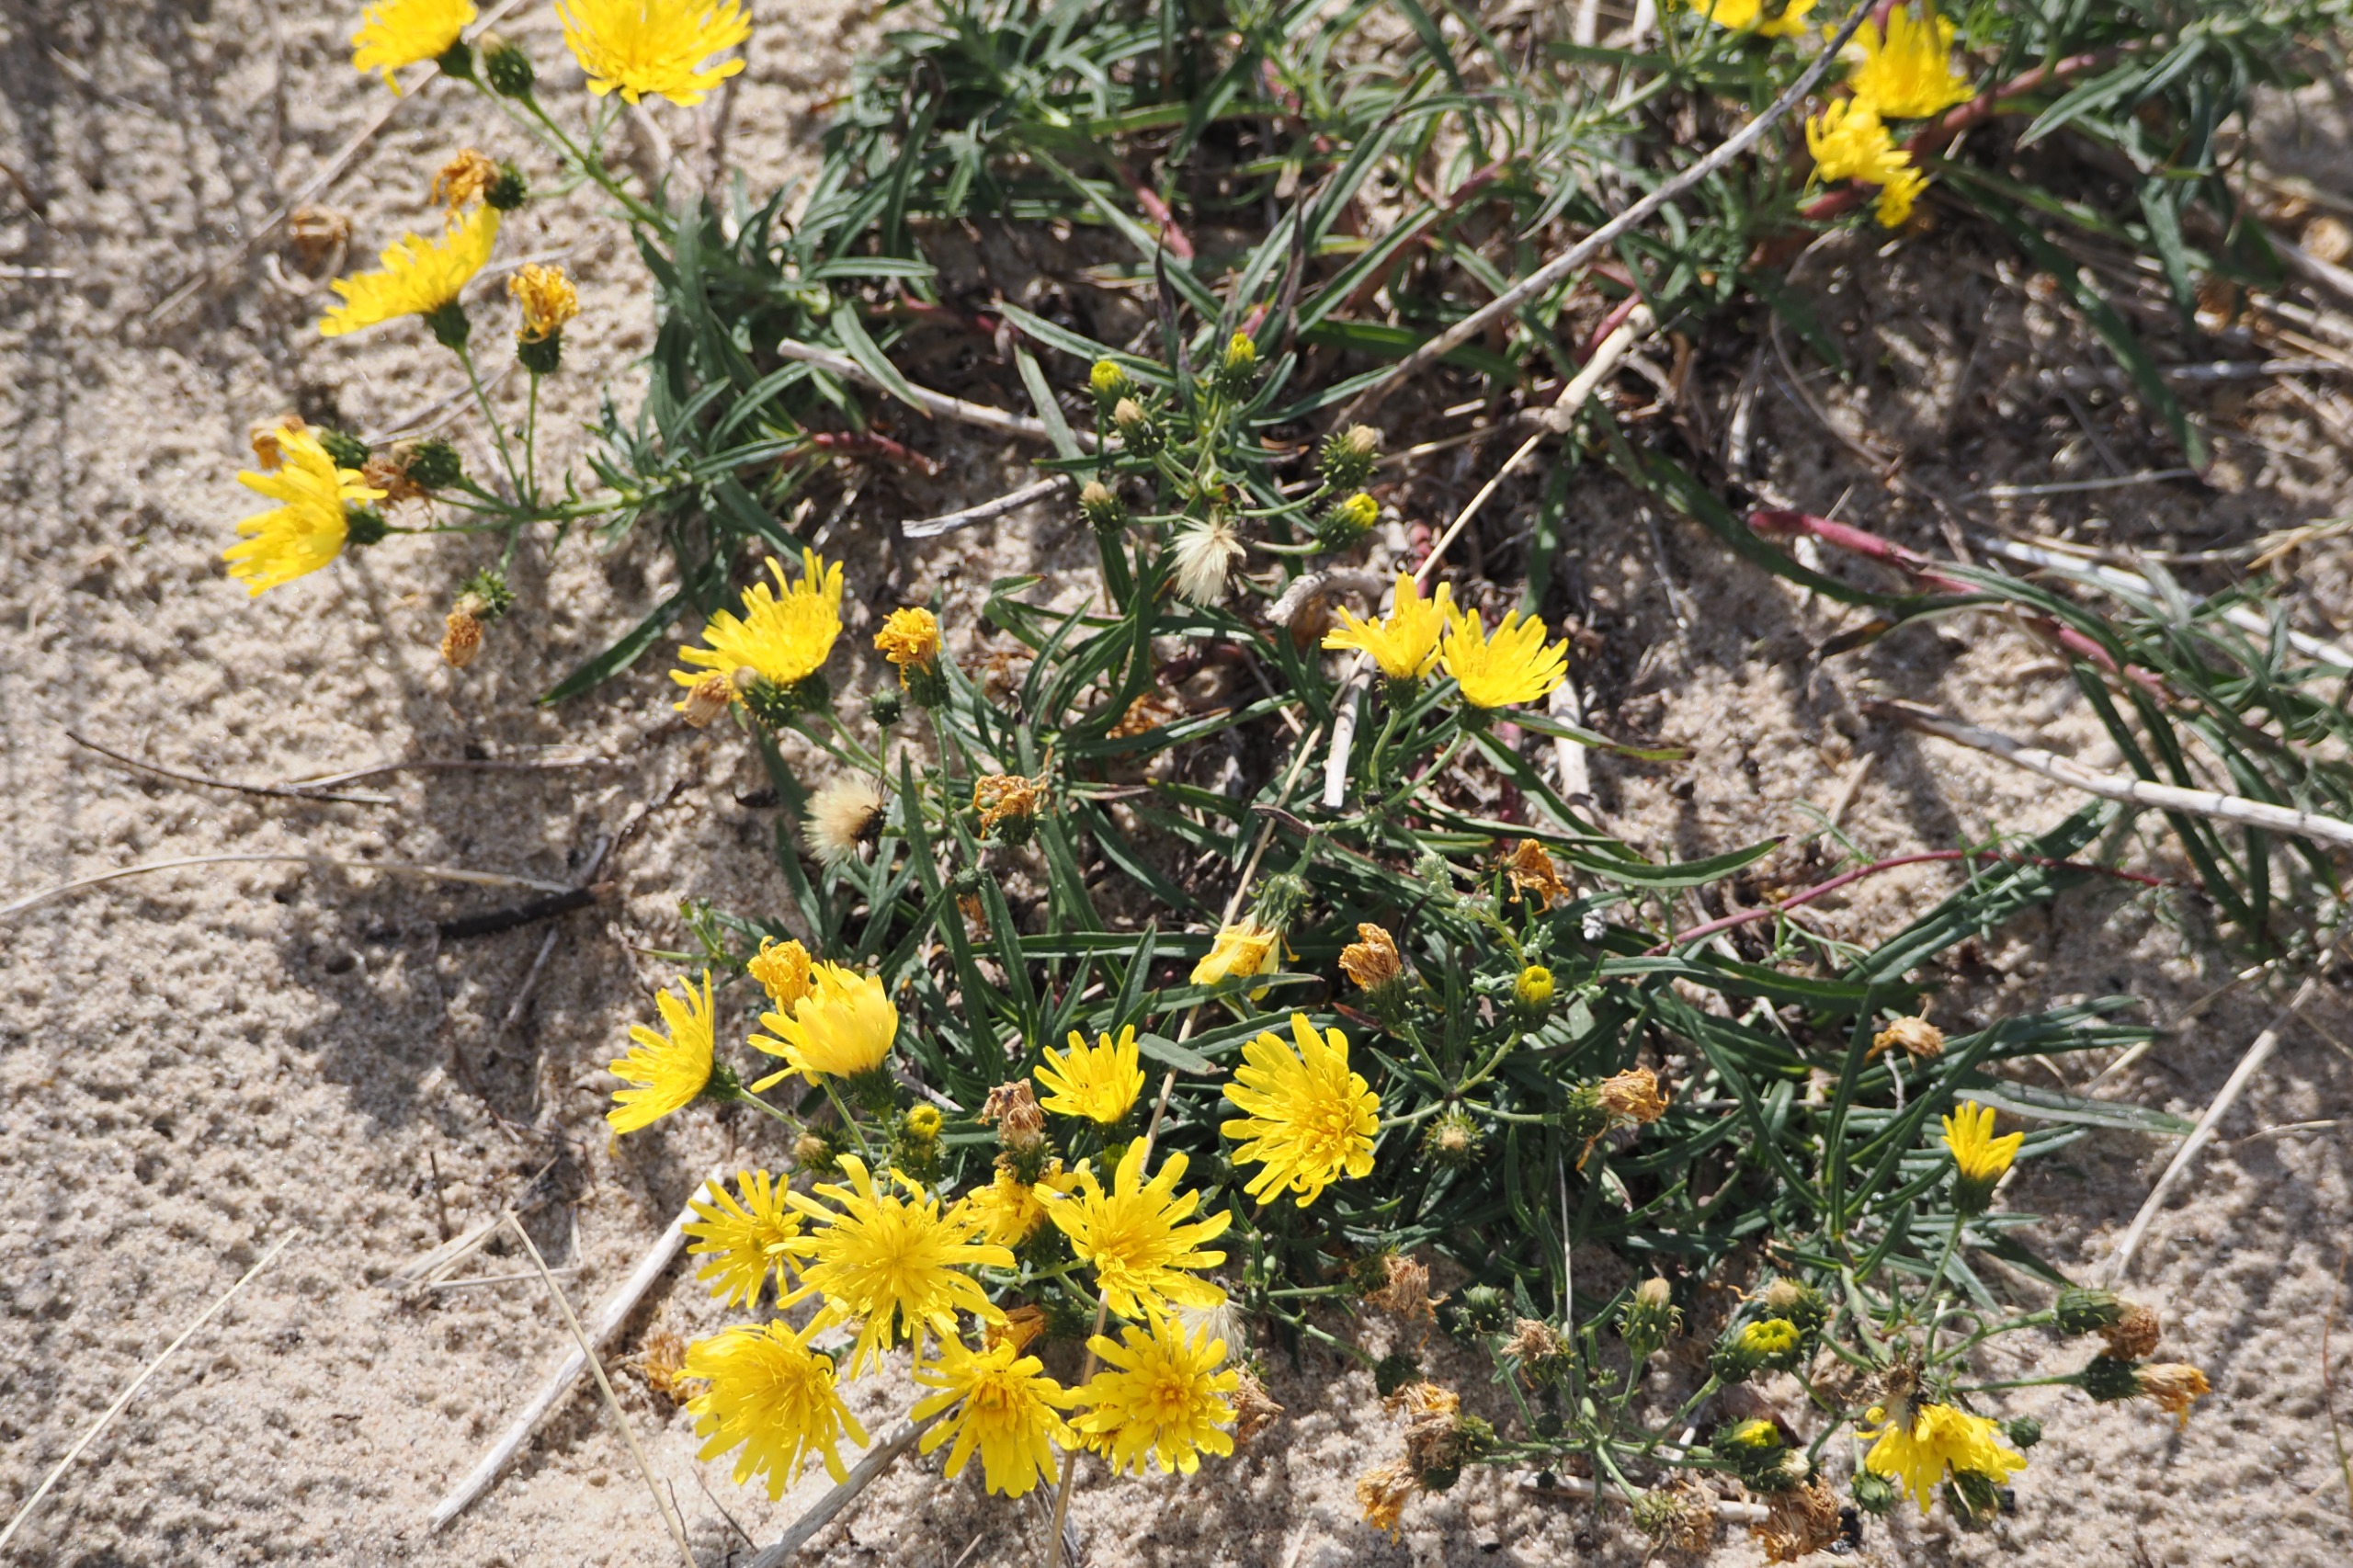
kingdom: Plantae
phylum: Tracheophyta
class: Magnoliopsida
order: Asterales
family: Asteraceae
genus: Hieracium
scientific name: Hieracium umbellatum
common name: Smalbladet høgeurt
